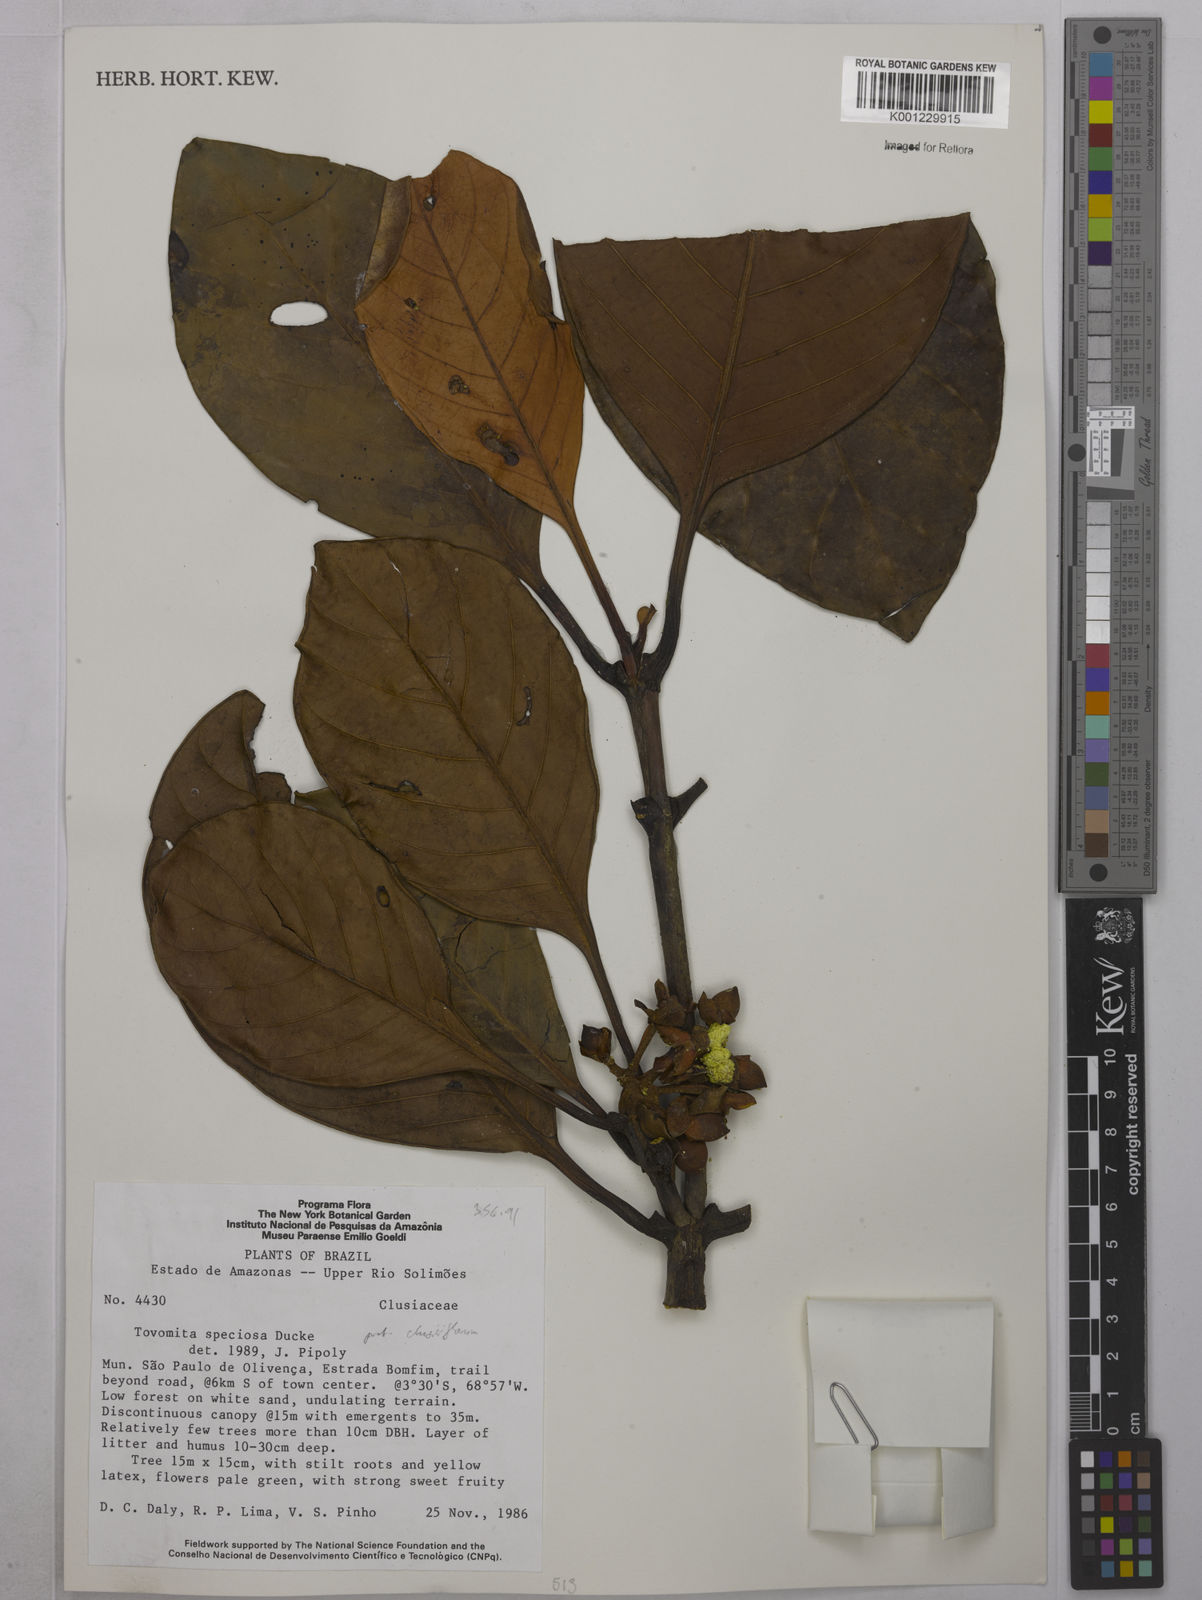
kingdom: Plantae
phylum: Tracheophyta
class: Magnoliopsida
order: Malpighiales
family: Clusiaceae
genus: Clusia
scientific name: Clusia
